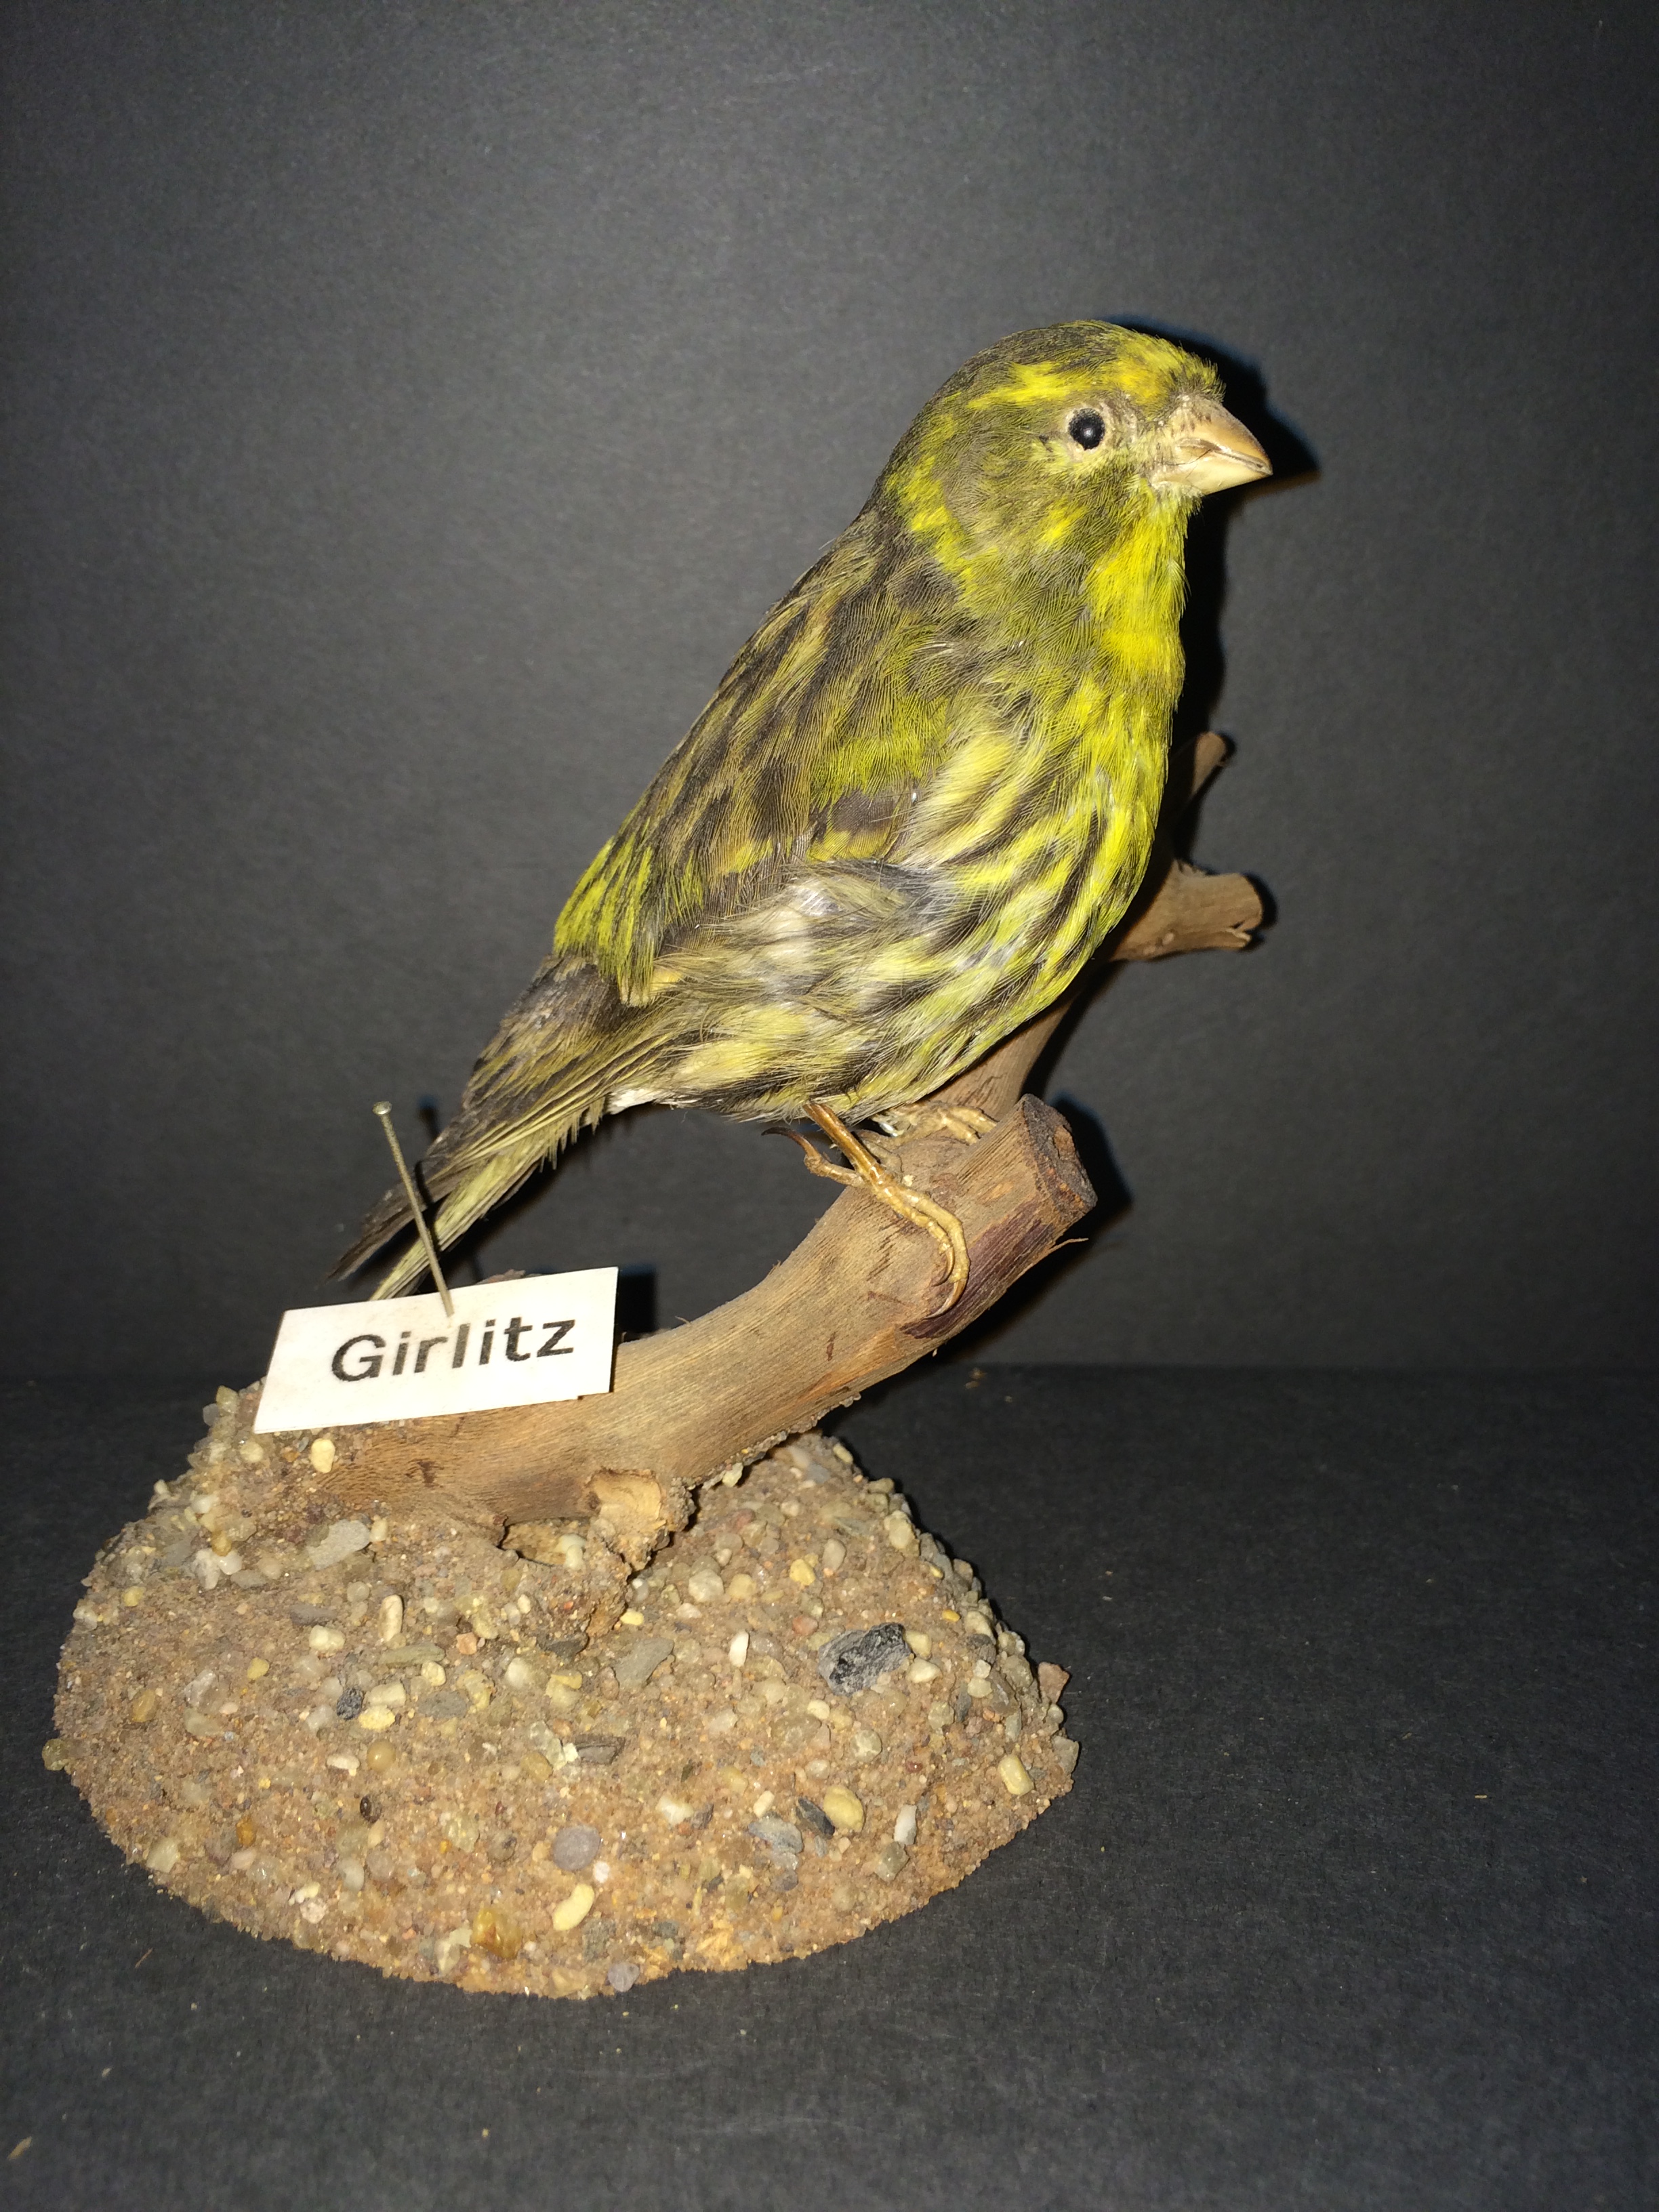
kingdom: Animalia
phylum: Chordata
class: Aves
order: Passeriformes
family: Fringillidae
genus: Serinus
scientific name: Serinus serinus
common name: European serin
